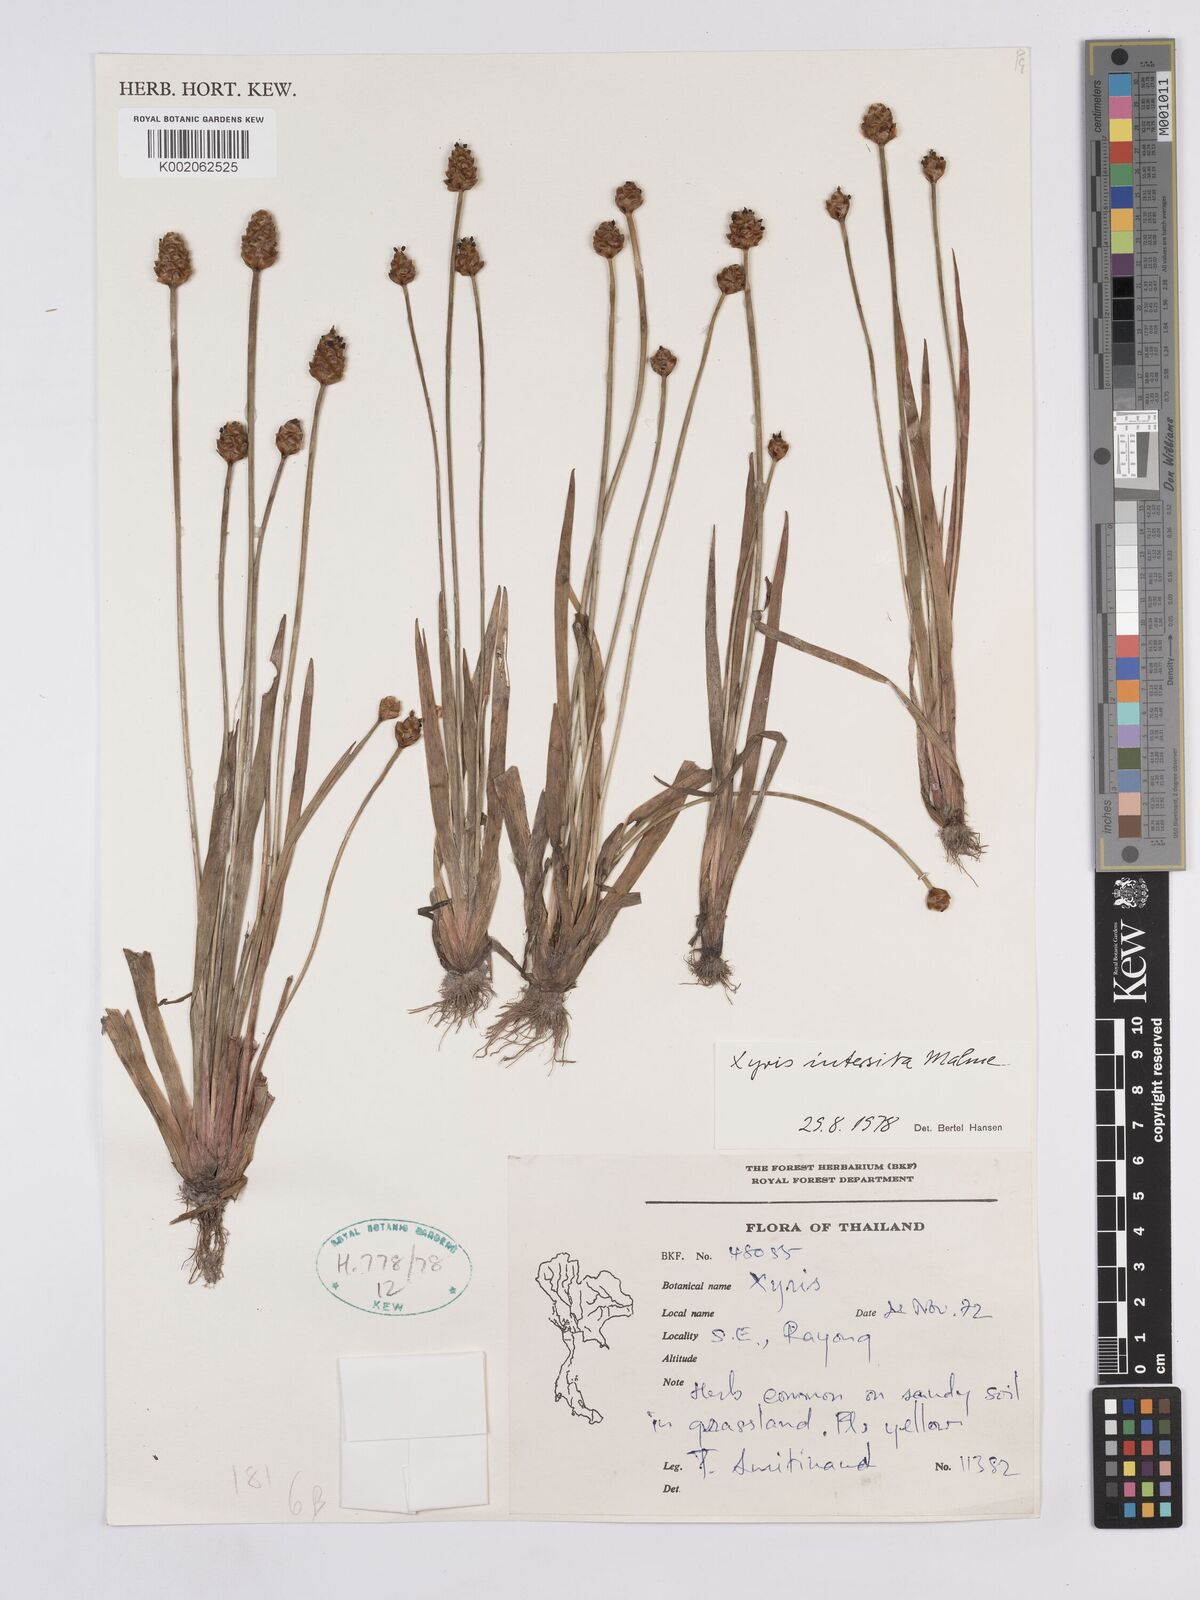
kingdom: Plantae
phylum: Tracheophyta
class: Liliopsida
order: Poales
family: Xyridaceae
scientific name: Xyridaceae
